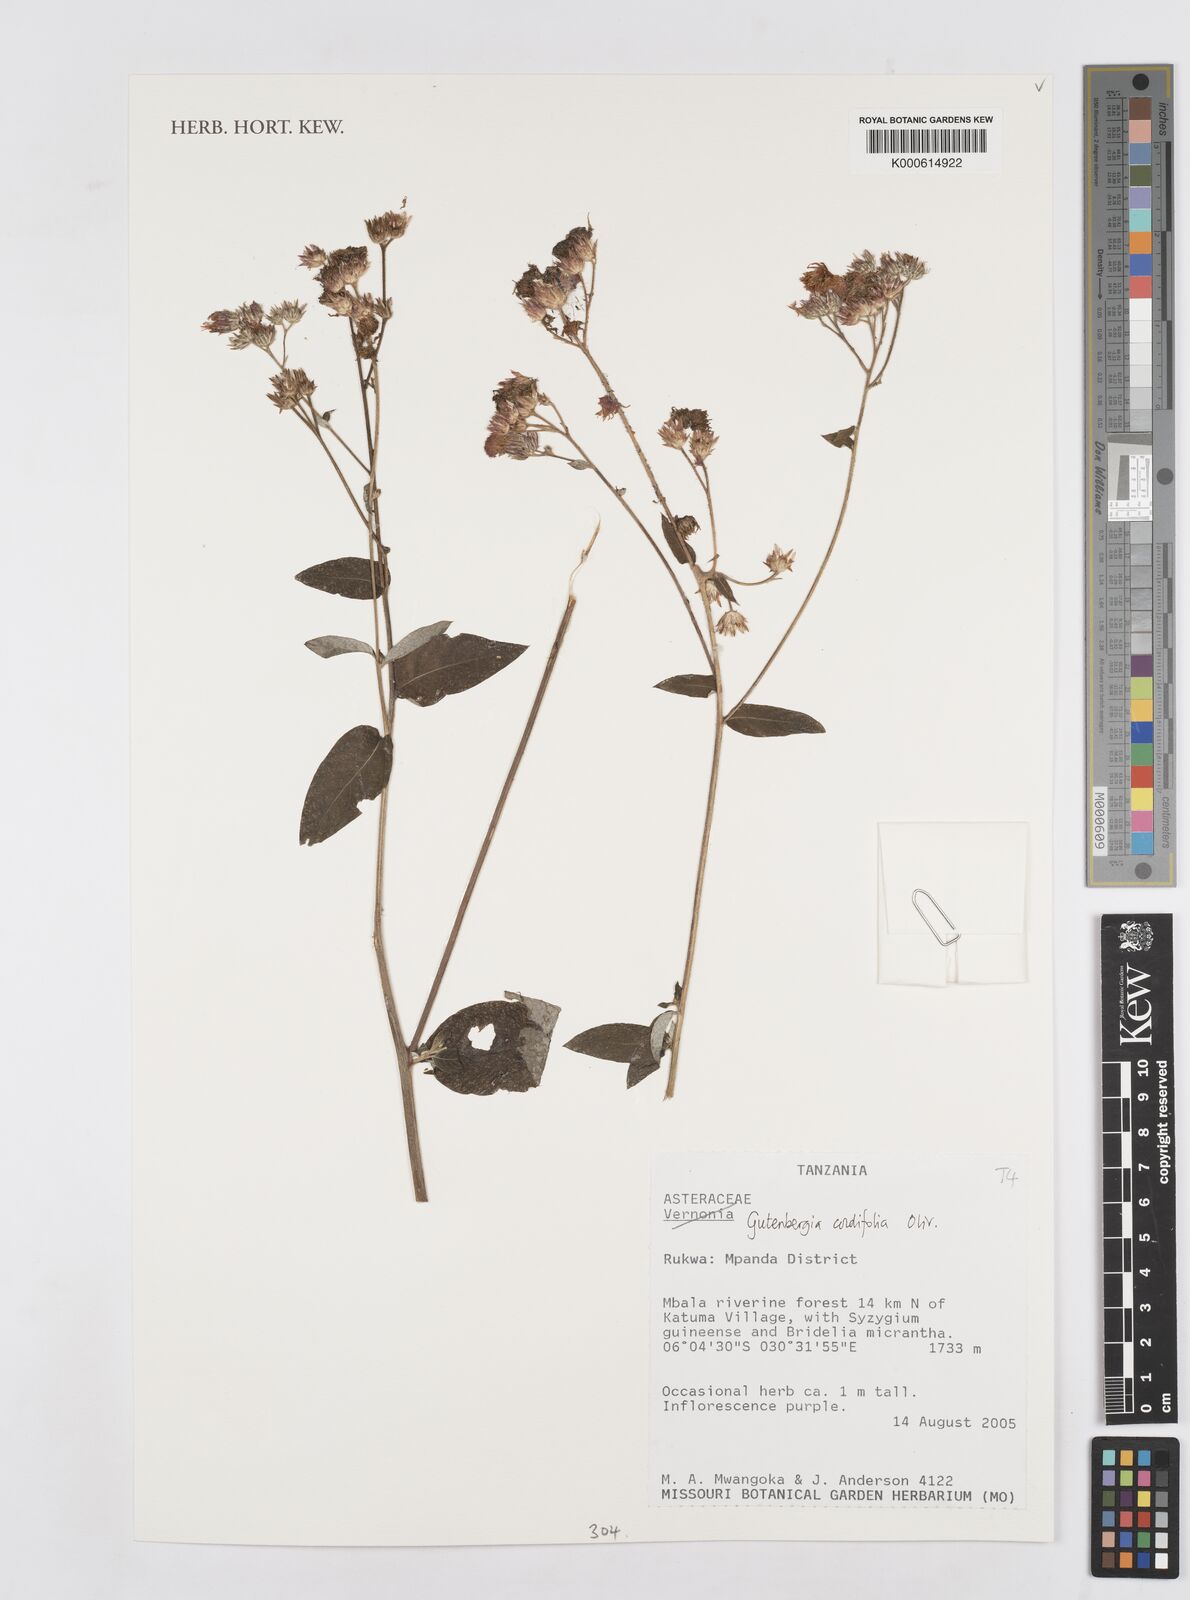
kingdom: Plantae
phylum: Tracheophyta
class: Magnoliopsida
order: Asterales
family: Asteraceae
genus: Gutenbergia
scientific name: Gutenbergia cordifolia
